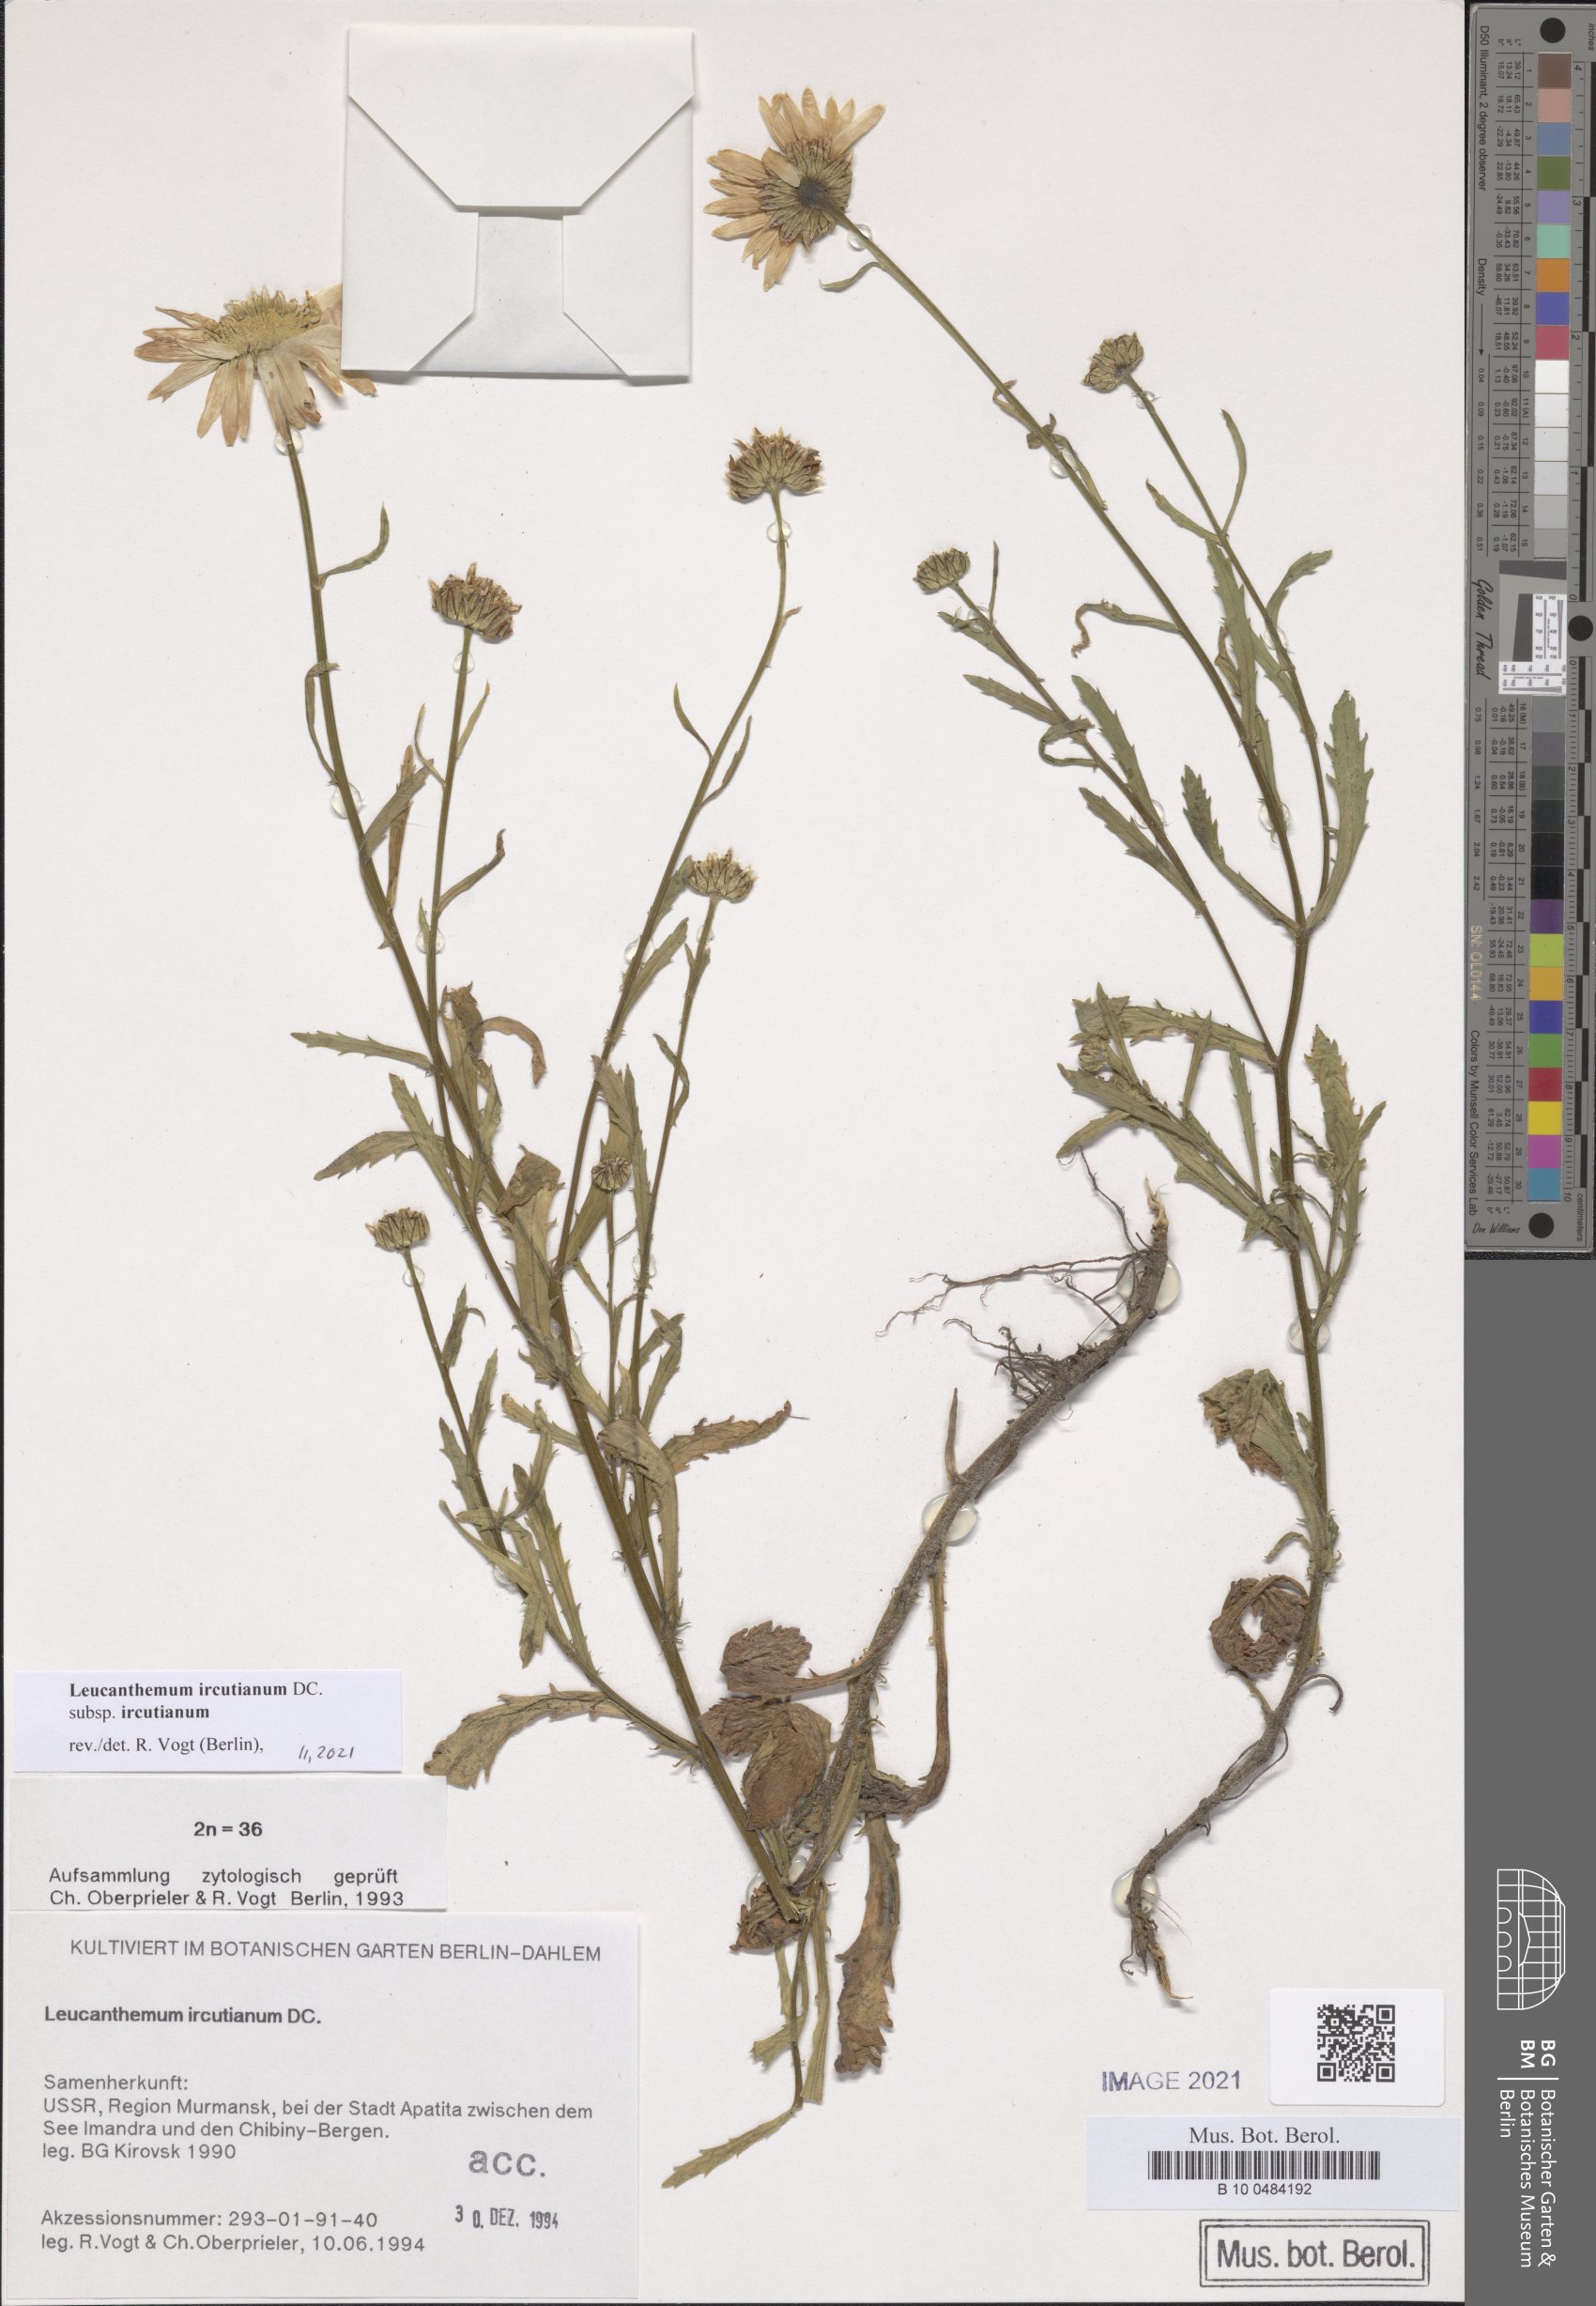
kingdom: Plantae
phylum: Tracheophyta
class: Magnoliopsida
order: Asterales
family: Asteraceae
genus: Leucanthemum
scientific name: Leucanthemum ircutianum
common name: Daisy
